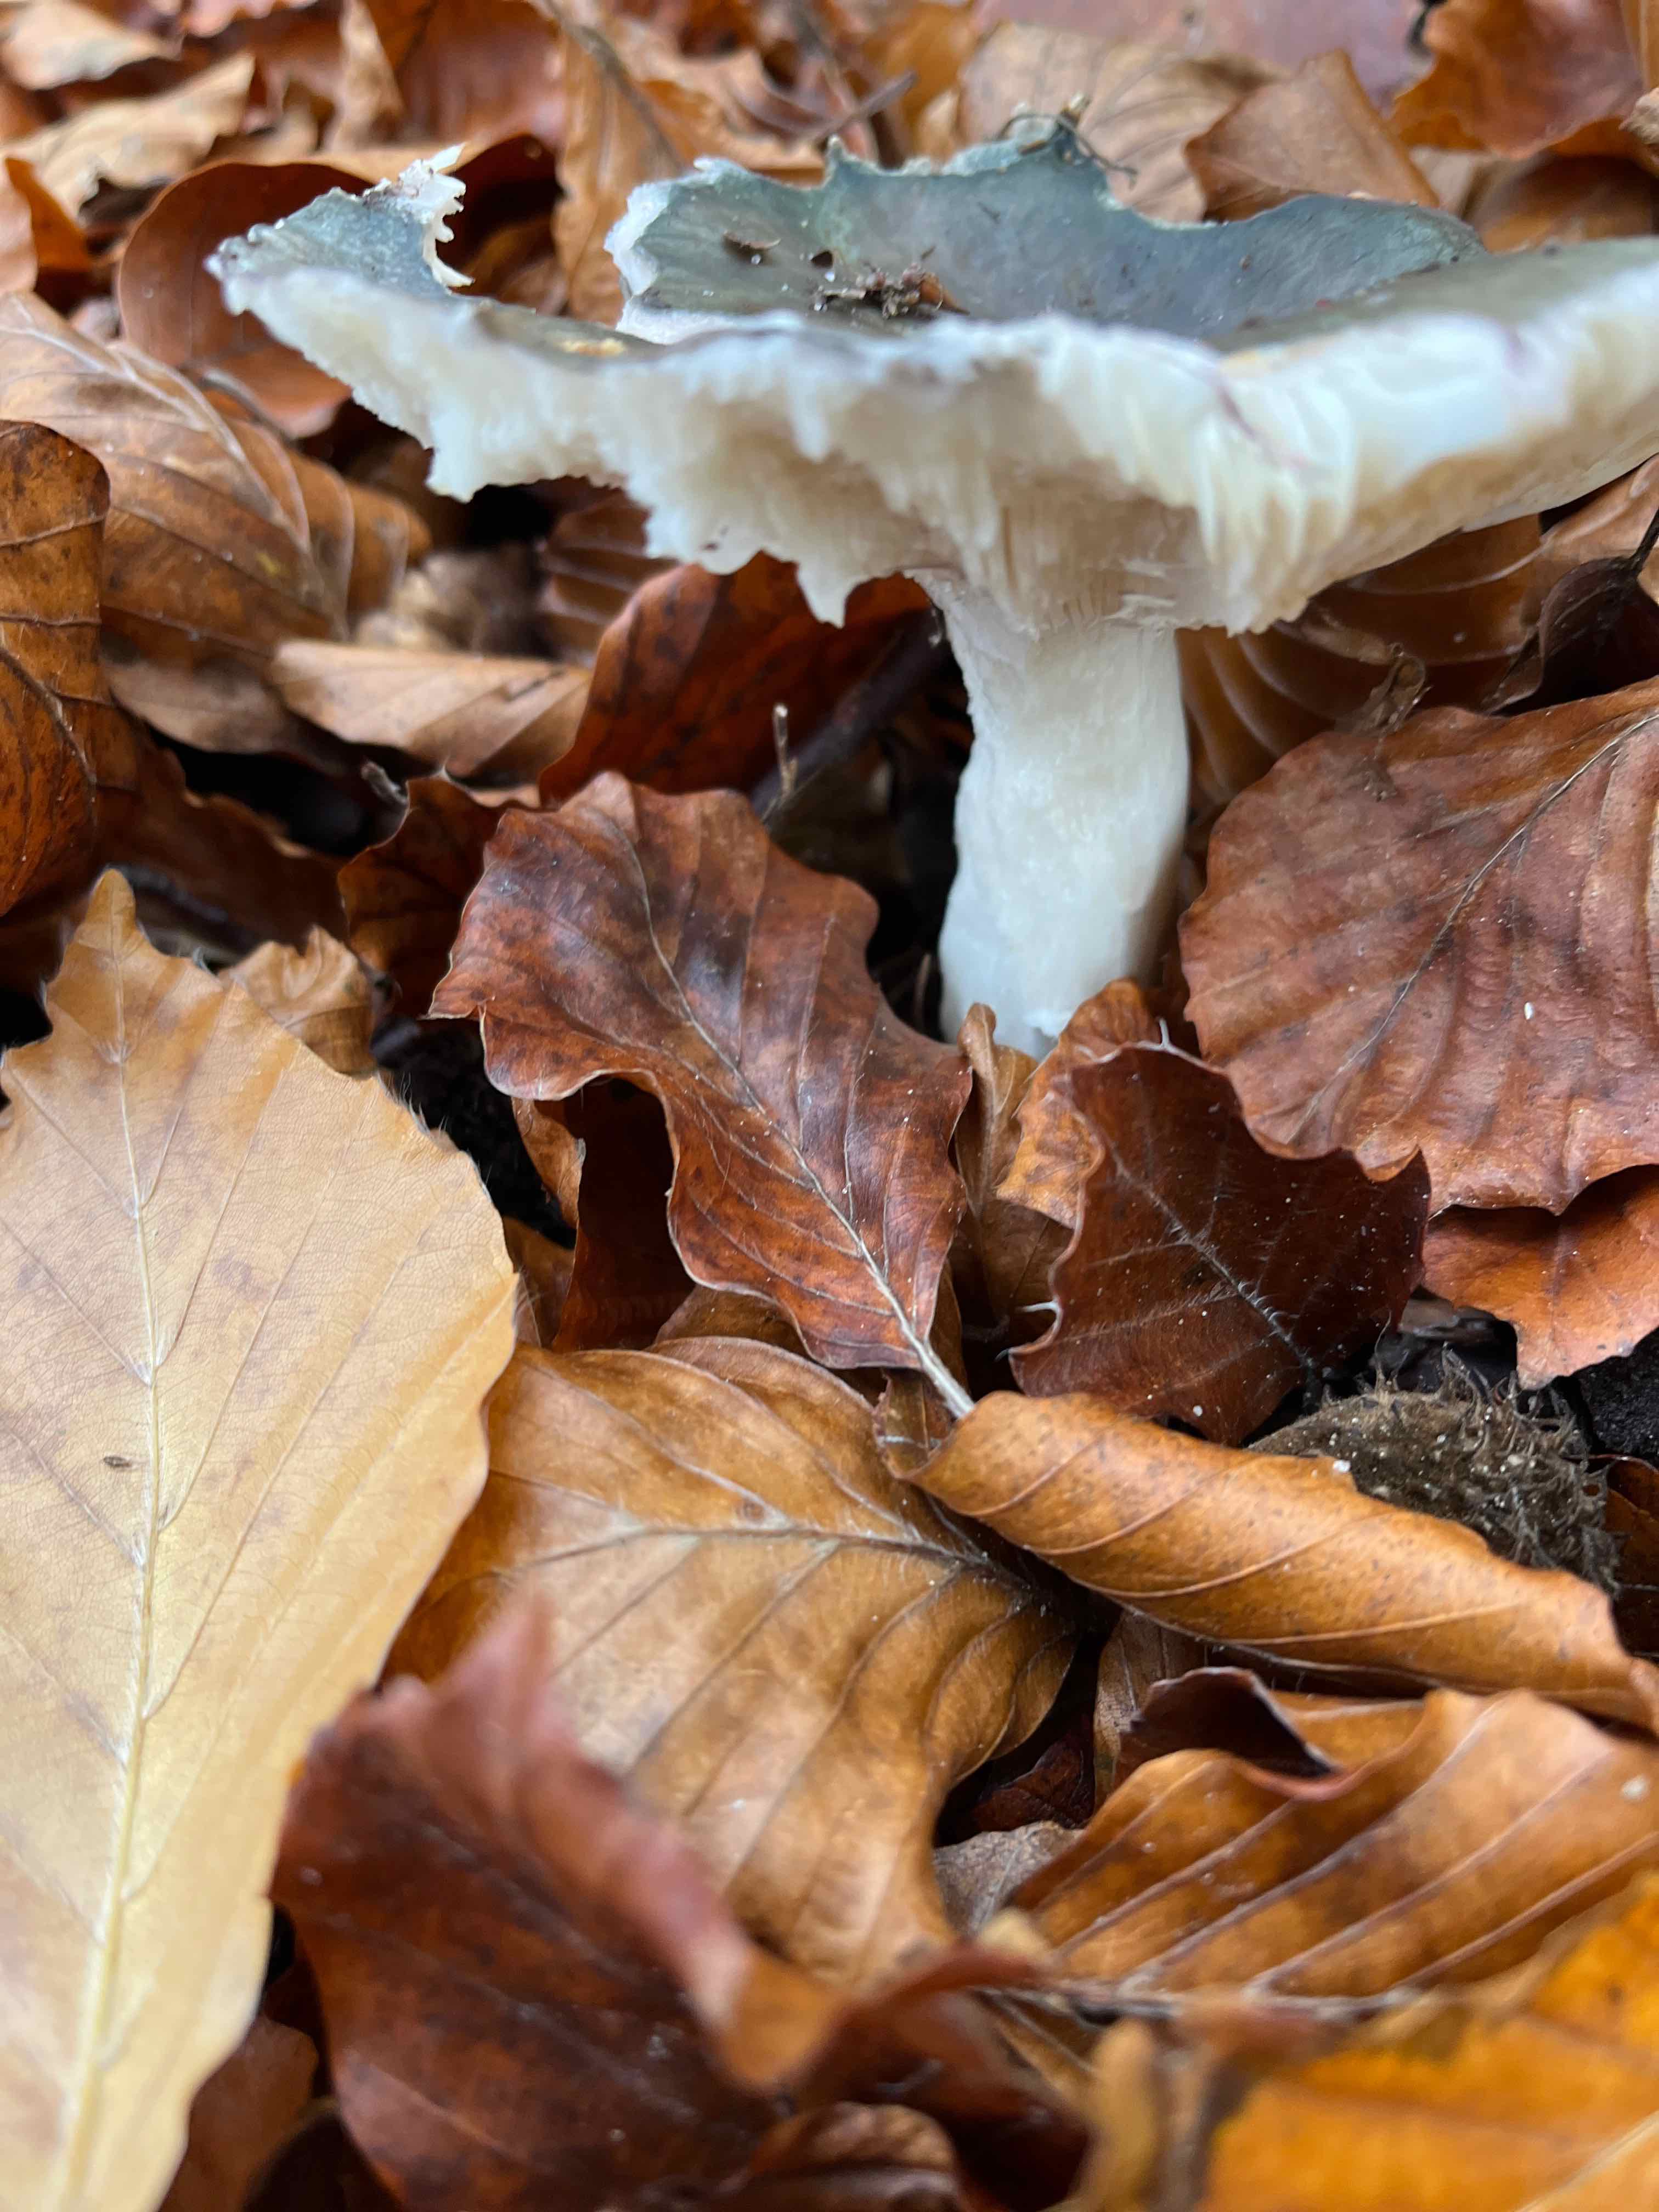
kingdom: Fungi
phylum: Basidiomycota
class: Agaricomycetes
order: Russulales
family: Russulaceae
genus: Russula
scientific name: Russula
